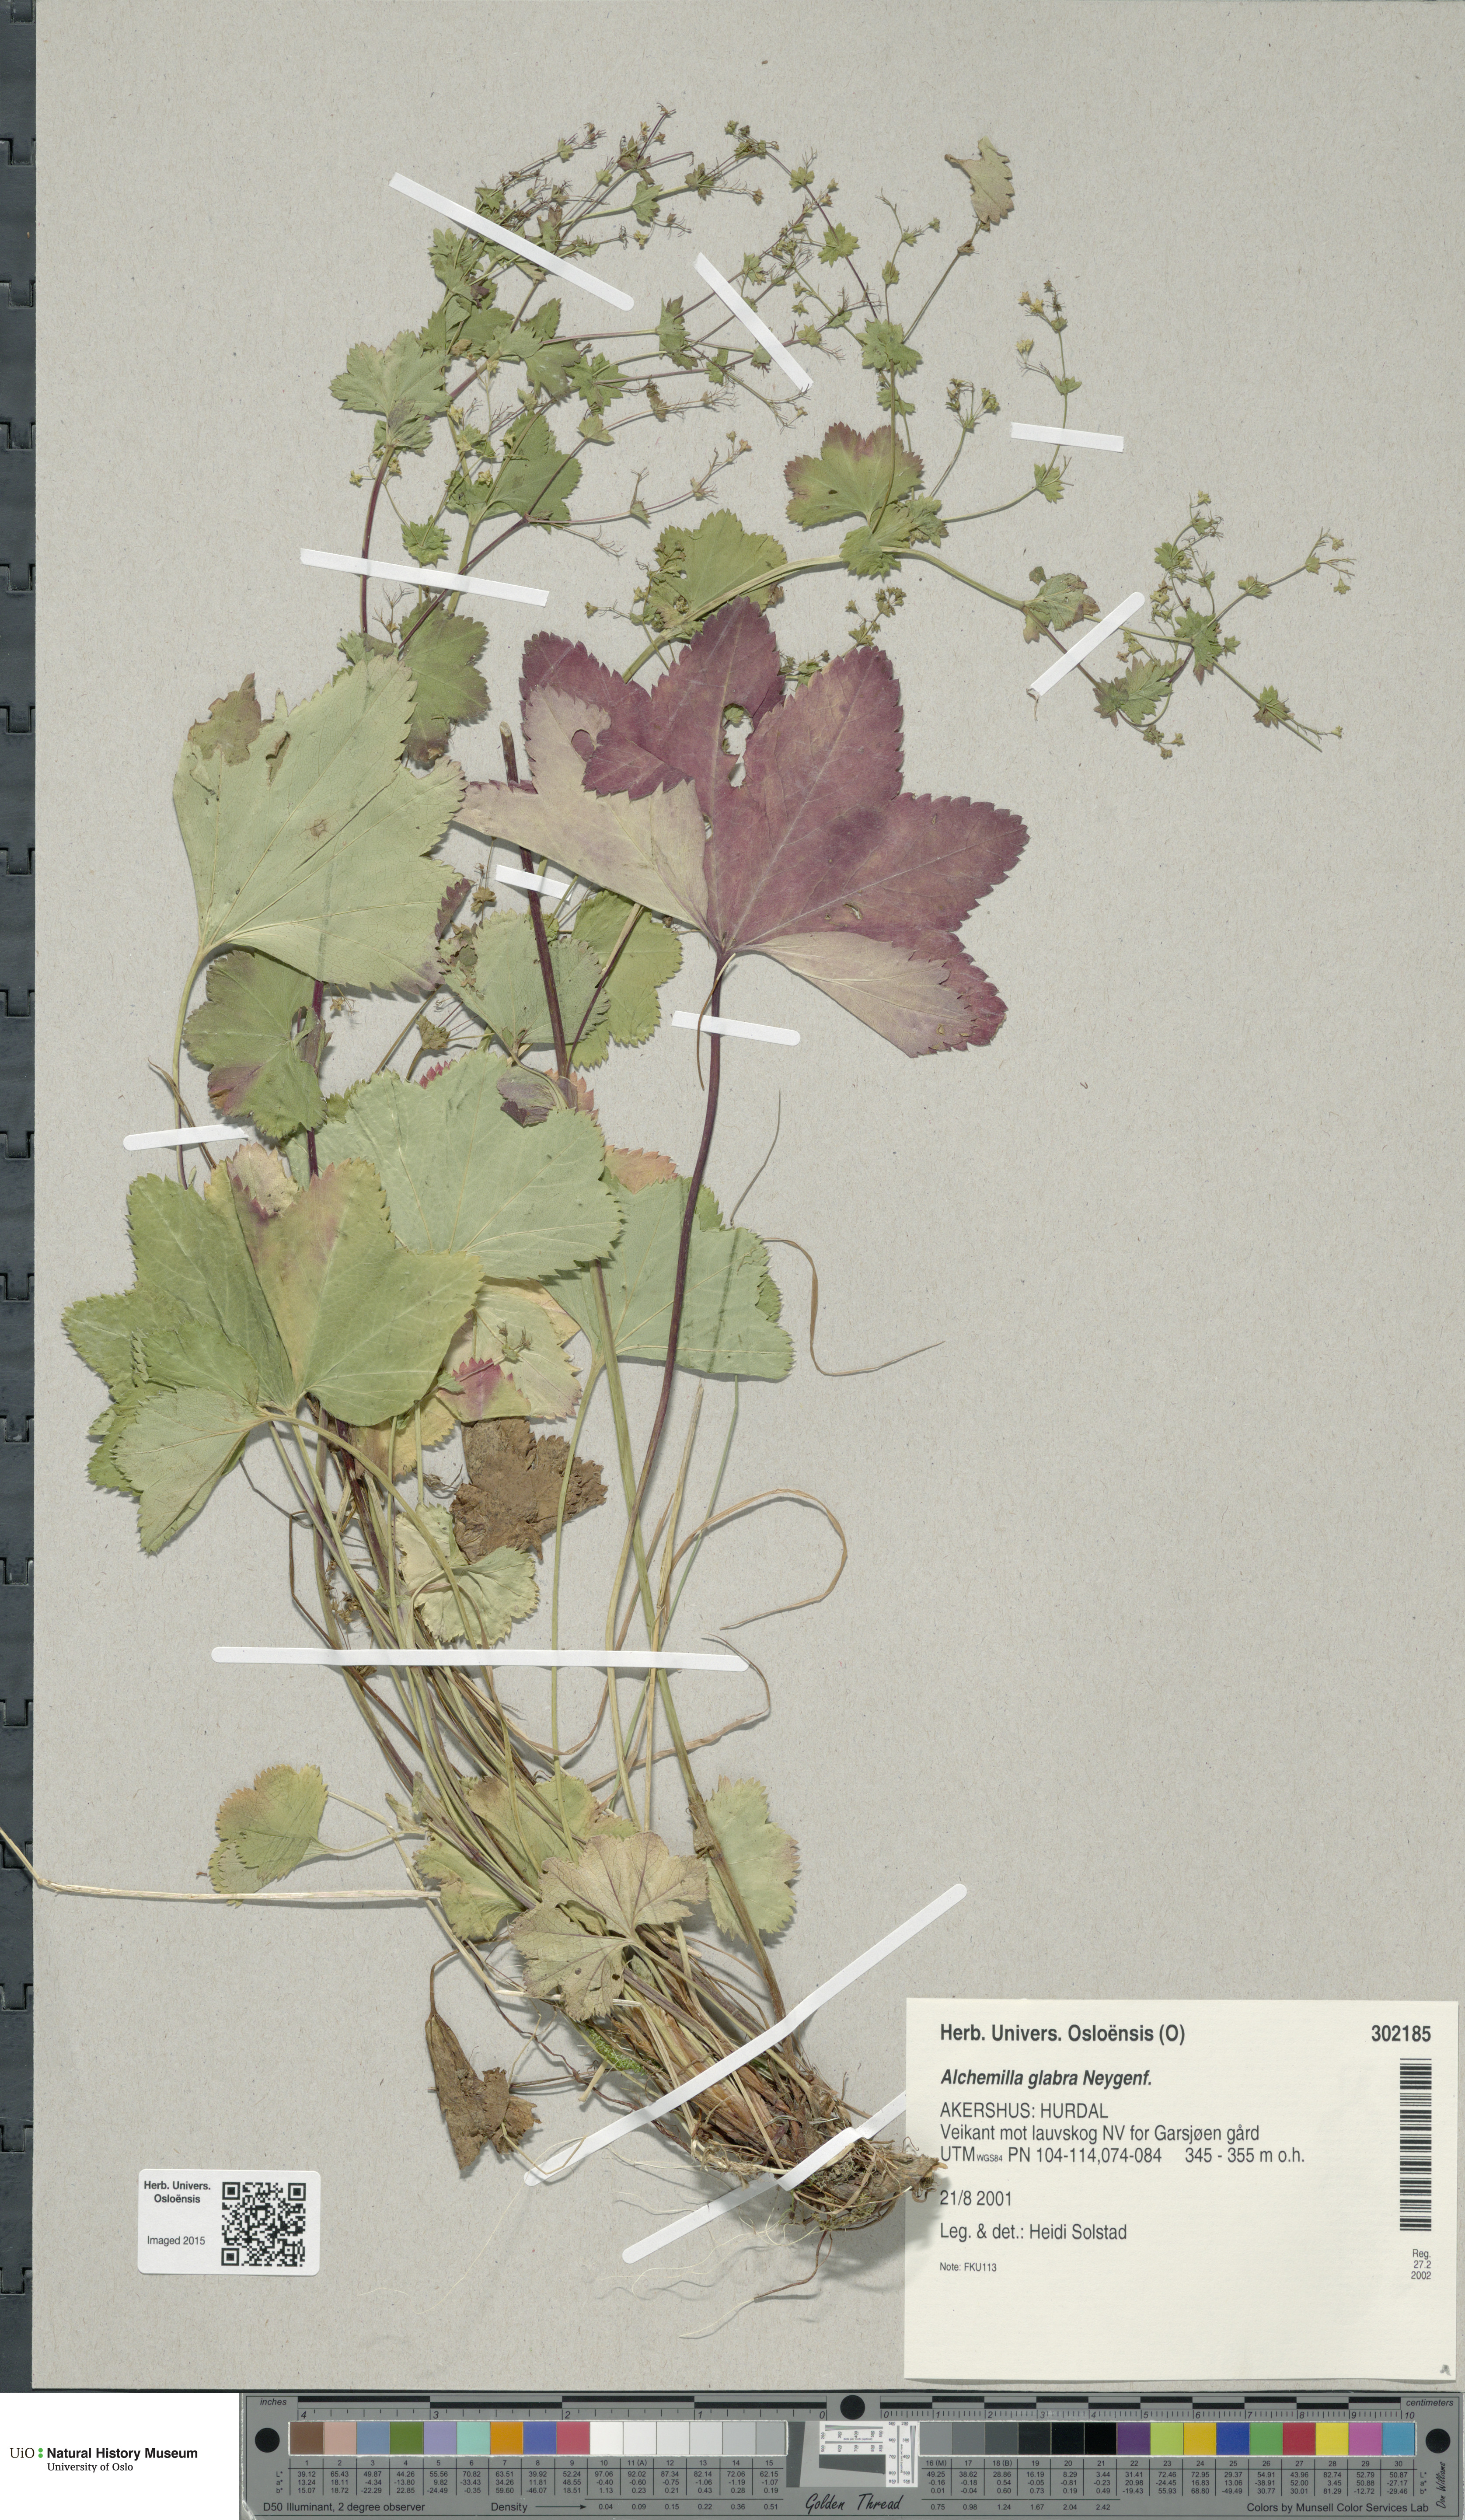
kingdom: Plantae
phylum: Tracheophyta
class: Magnoliopsida
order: Rosales
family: Rosaceae
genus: Alchemilla
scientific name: Alchemilla glabra
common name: Smooth lady's-mantle
